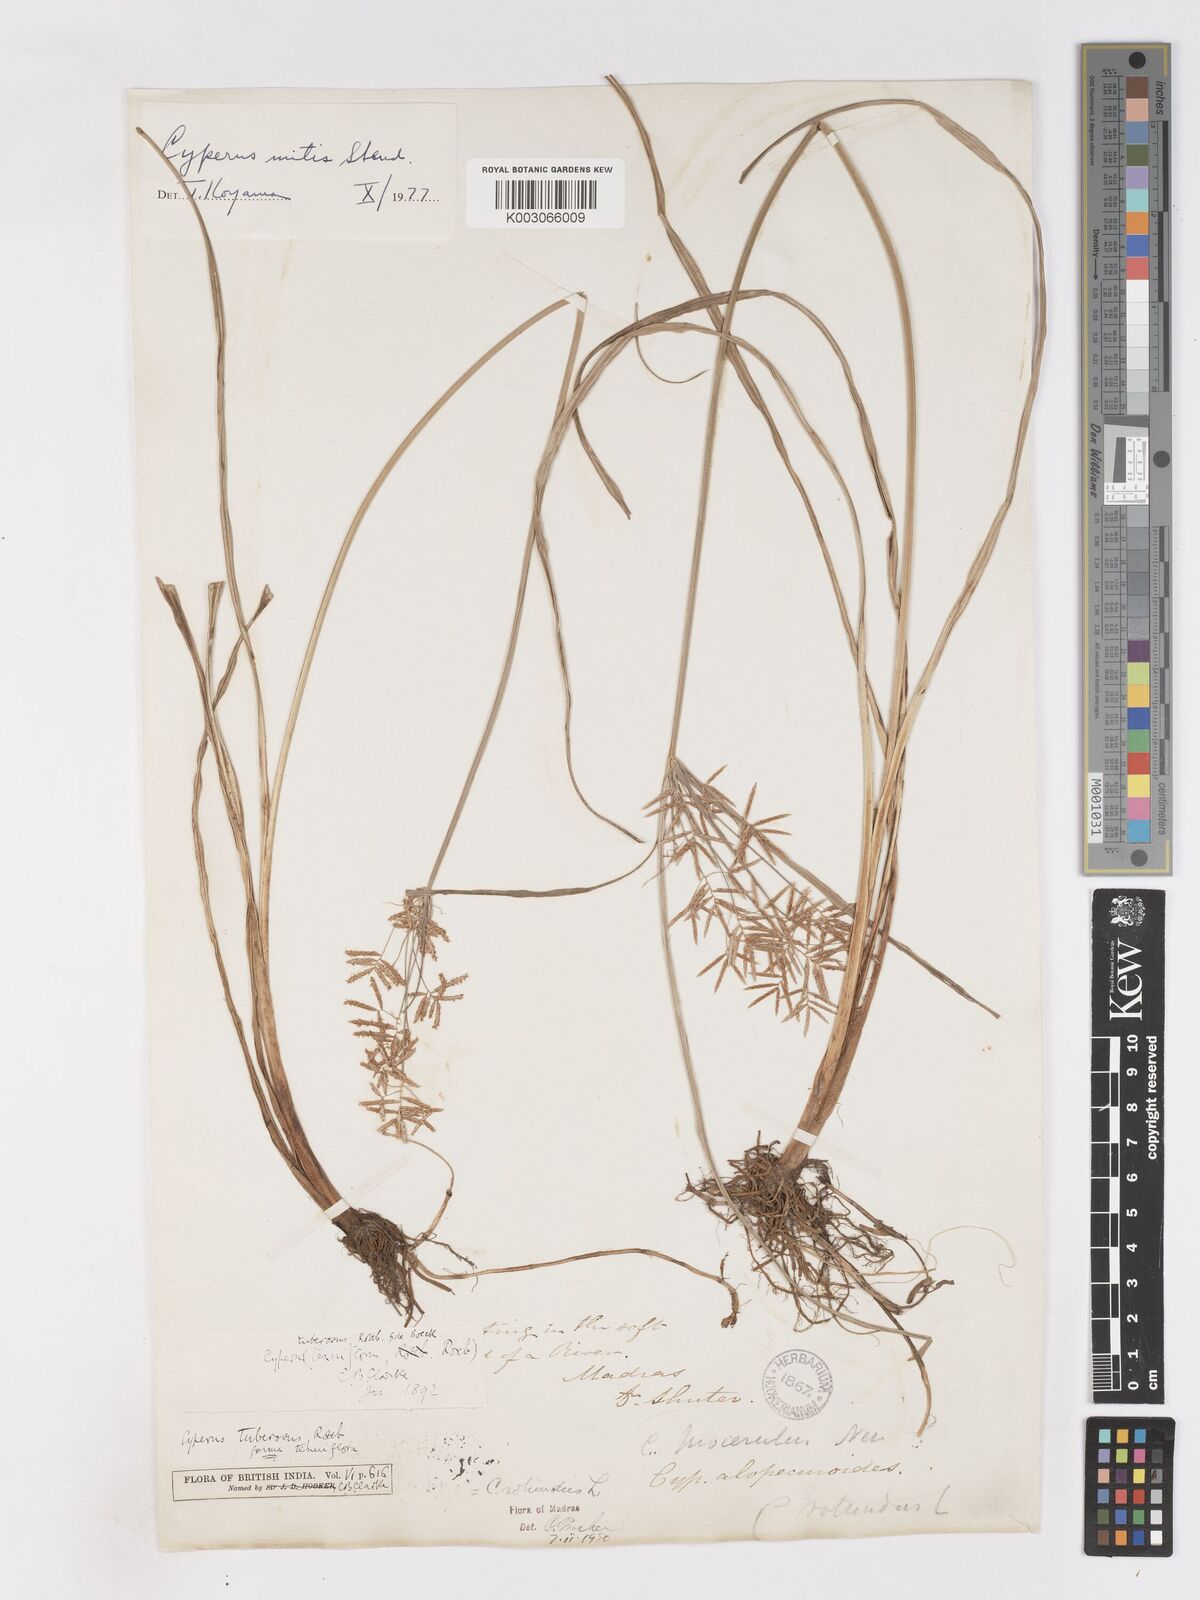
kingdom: Plantae
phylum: Tracheophyta
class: Liliopsida
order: Poales
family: Cyperaceae
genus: Cyperus
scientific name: Cyperus mitis
